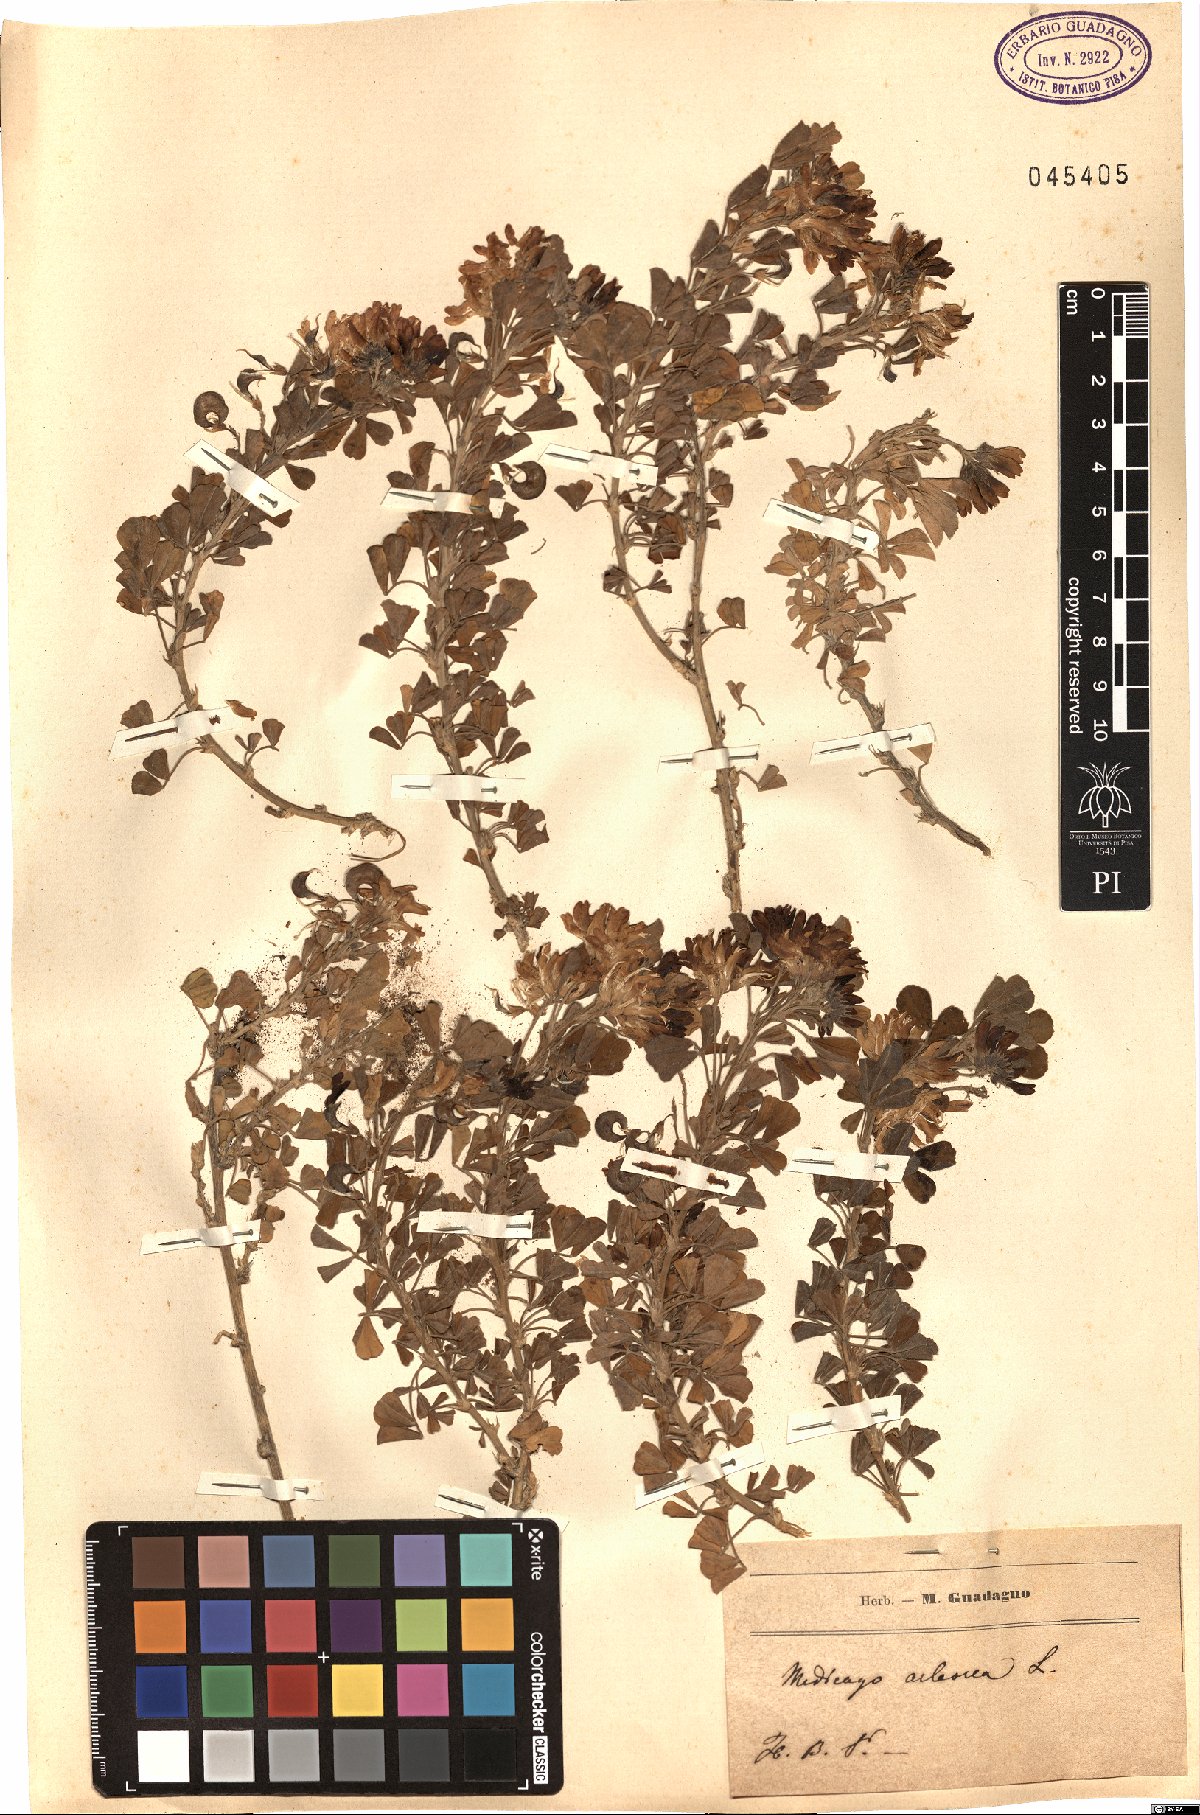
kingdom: Plantae
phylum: Tracheophyta
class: Magnoliopsida
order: Fabales
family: Fabaceae
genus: Medicago
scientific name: Medicago arborea
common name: Moon trefoil
